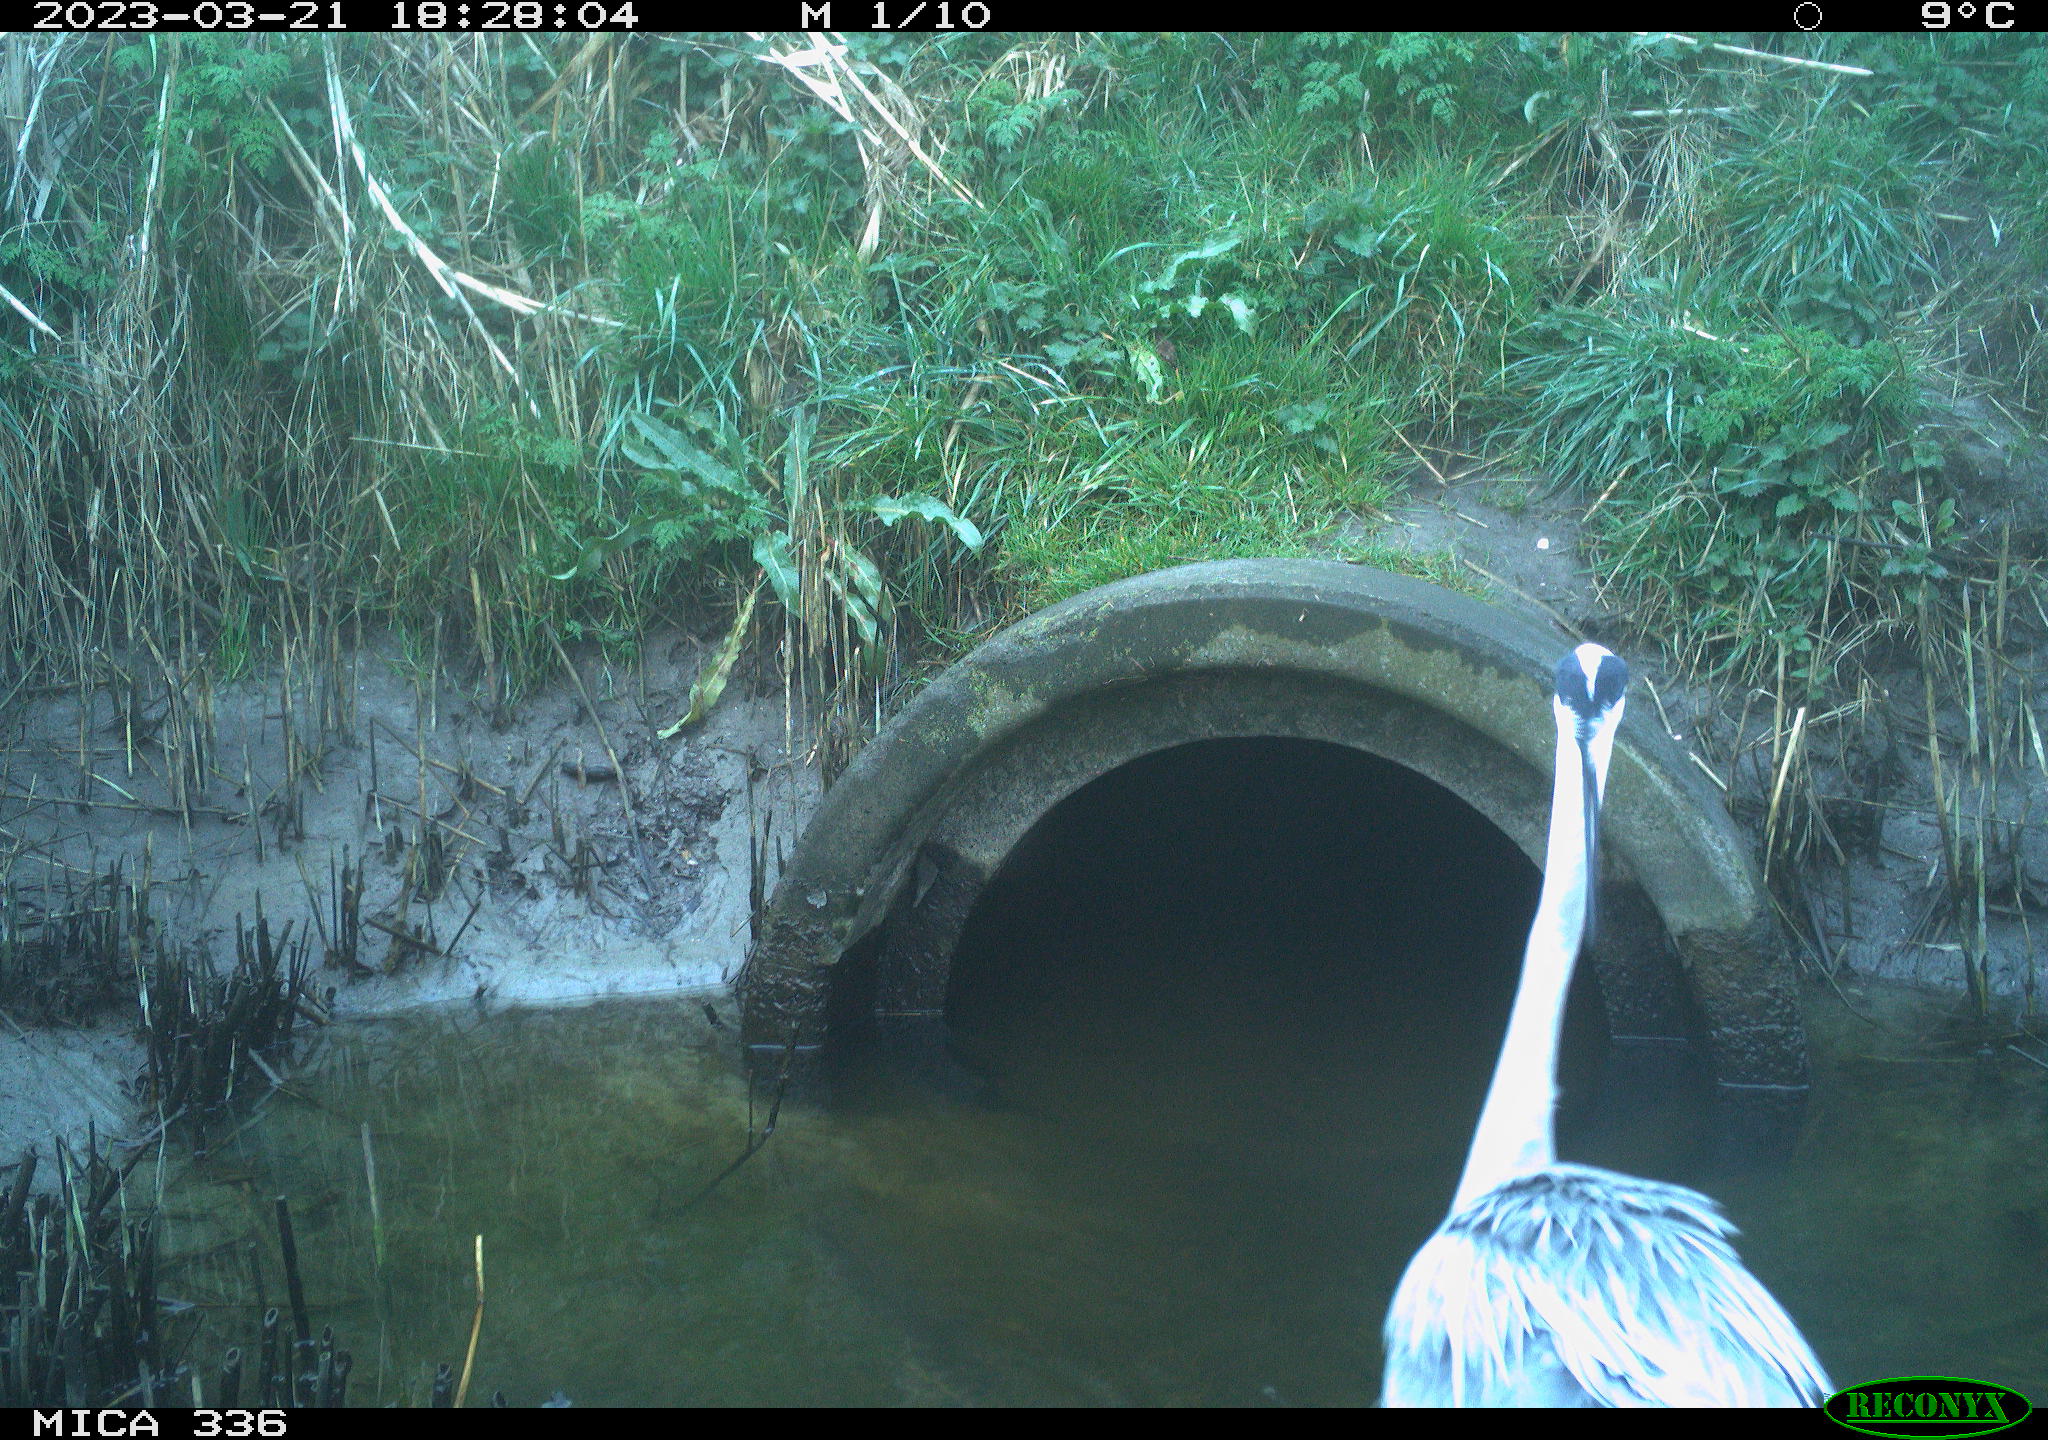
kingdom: Animalia
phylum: Chordata
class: Aves
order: Pelecaniformes
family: Ardeidae
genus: Ardea
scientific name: Ardea
